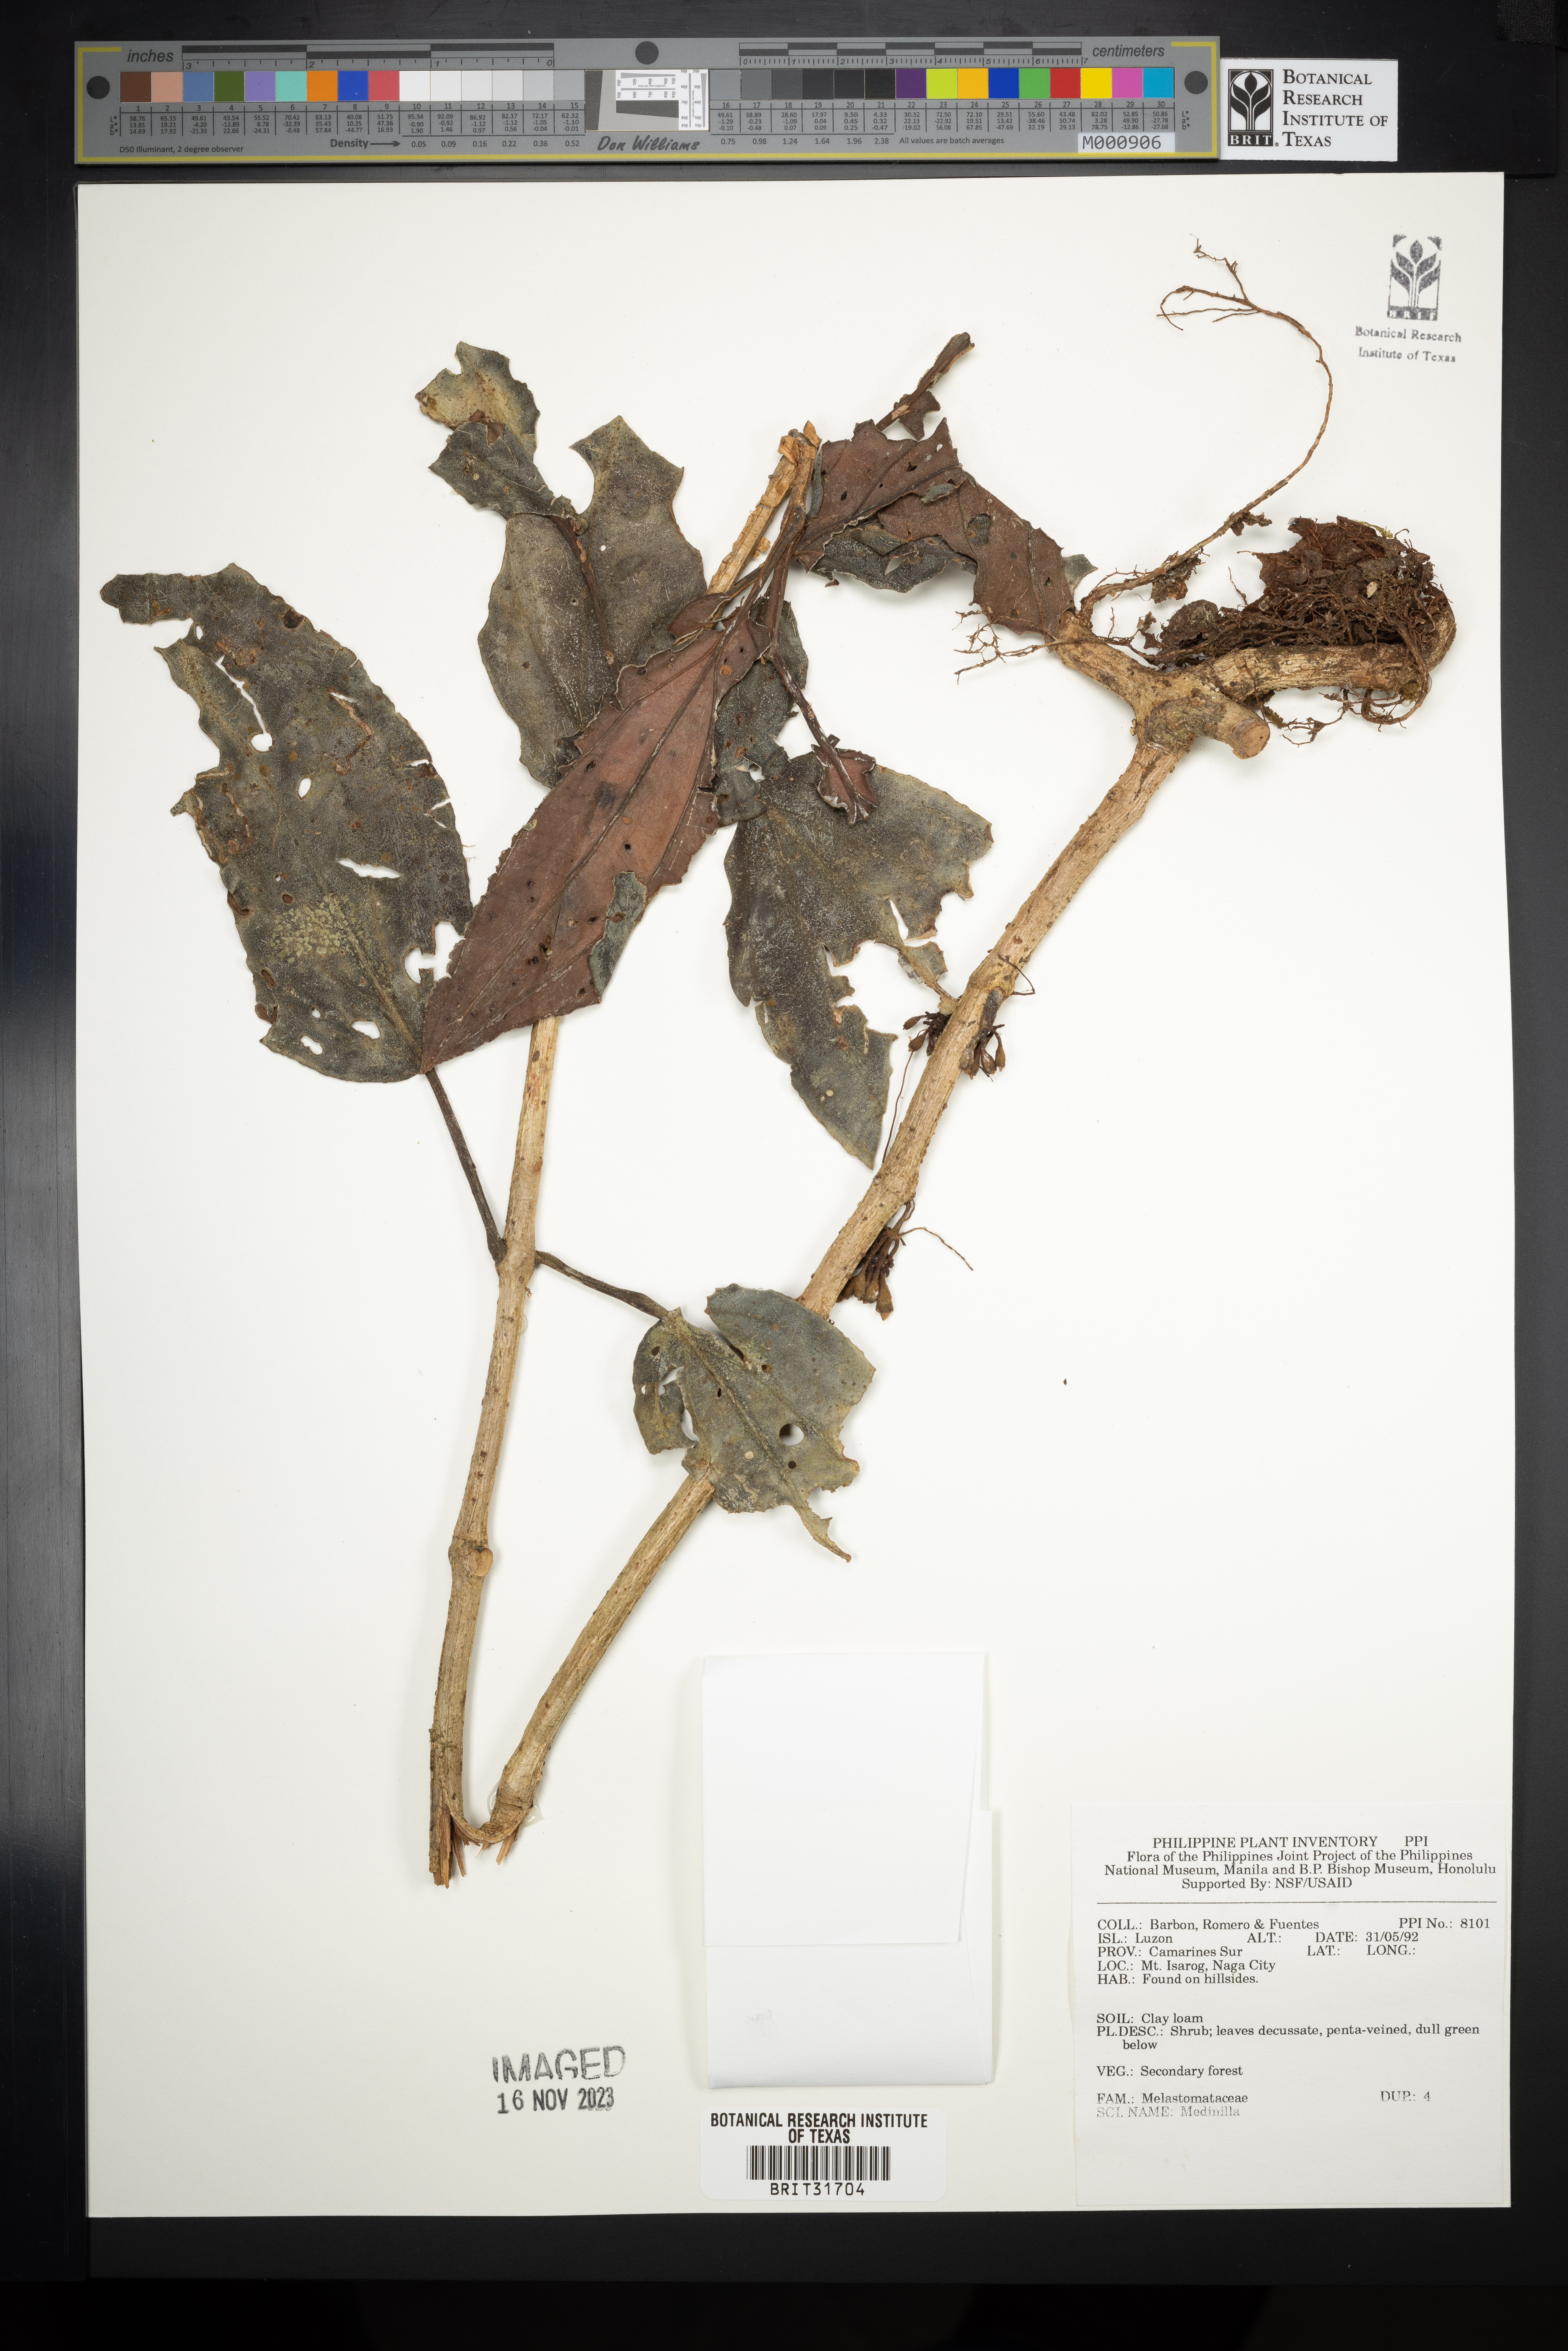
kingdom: Plantae
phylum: Tracheophyta
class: Magnoliopsida
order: Myrtales
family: Melastomataceae
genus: Medinilla
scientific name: Medinilla
